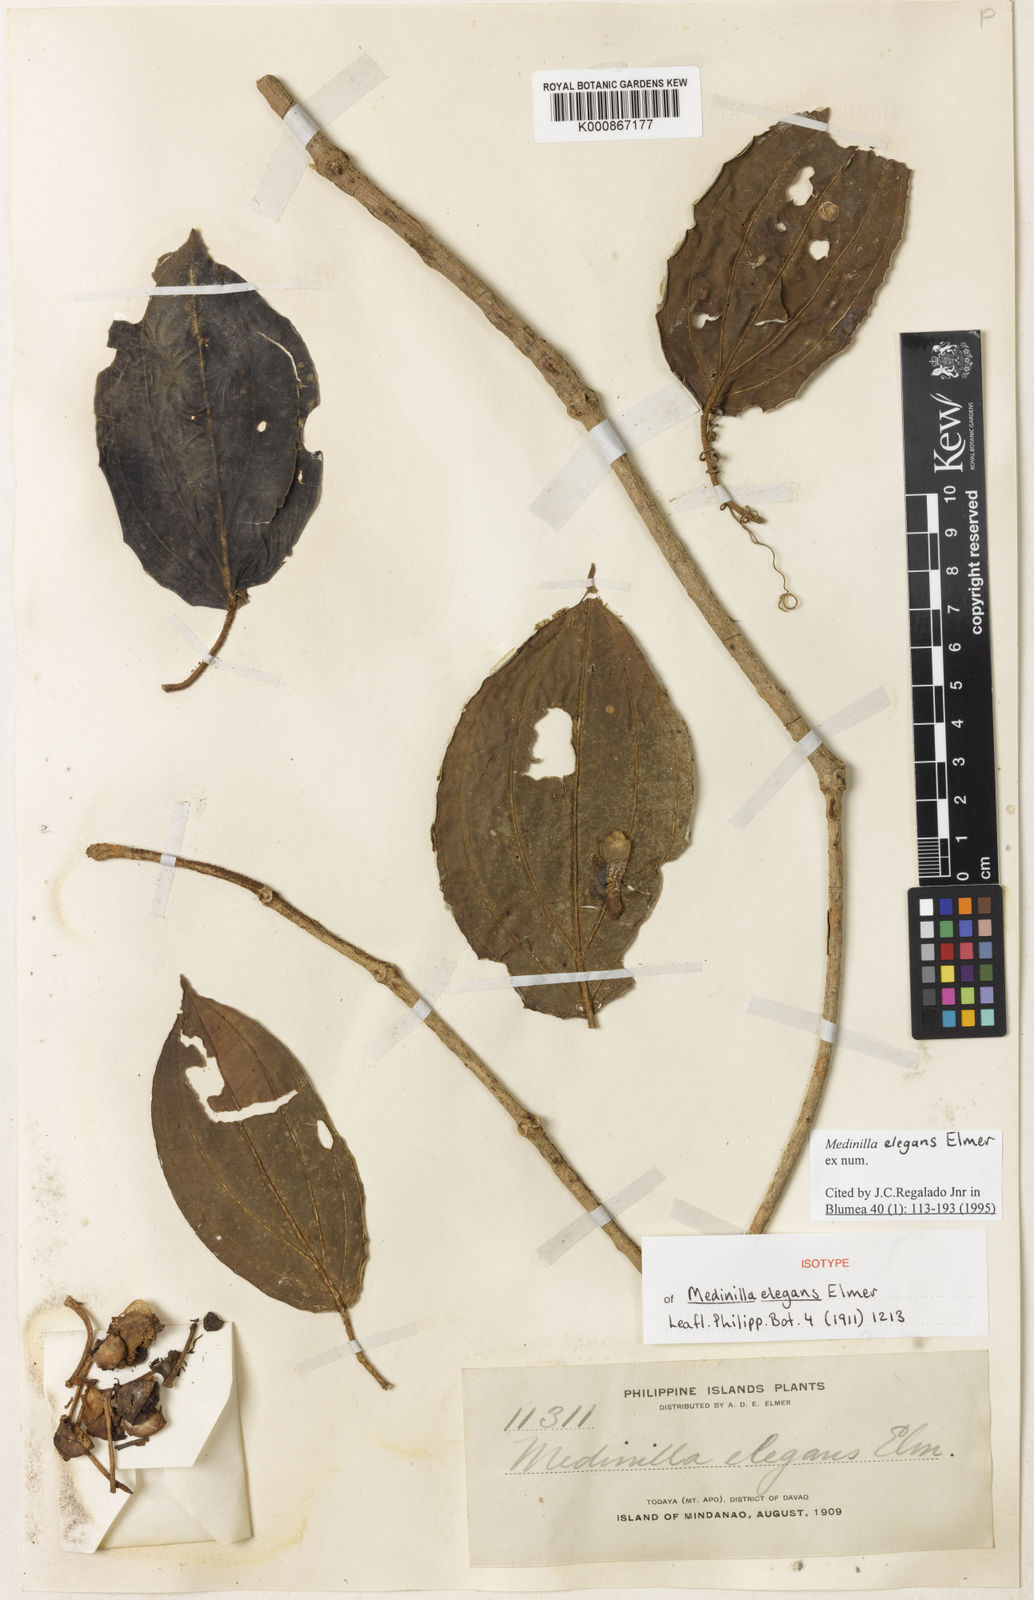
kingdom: Plantae
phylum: Tracheophyta
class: Magnoliopsida
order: Myrtales
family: Melastomataceae
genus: Medinilla
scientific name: Medinilla elegans
